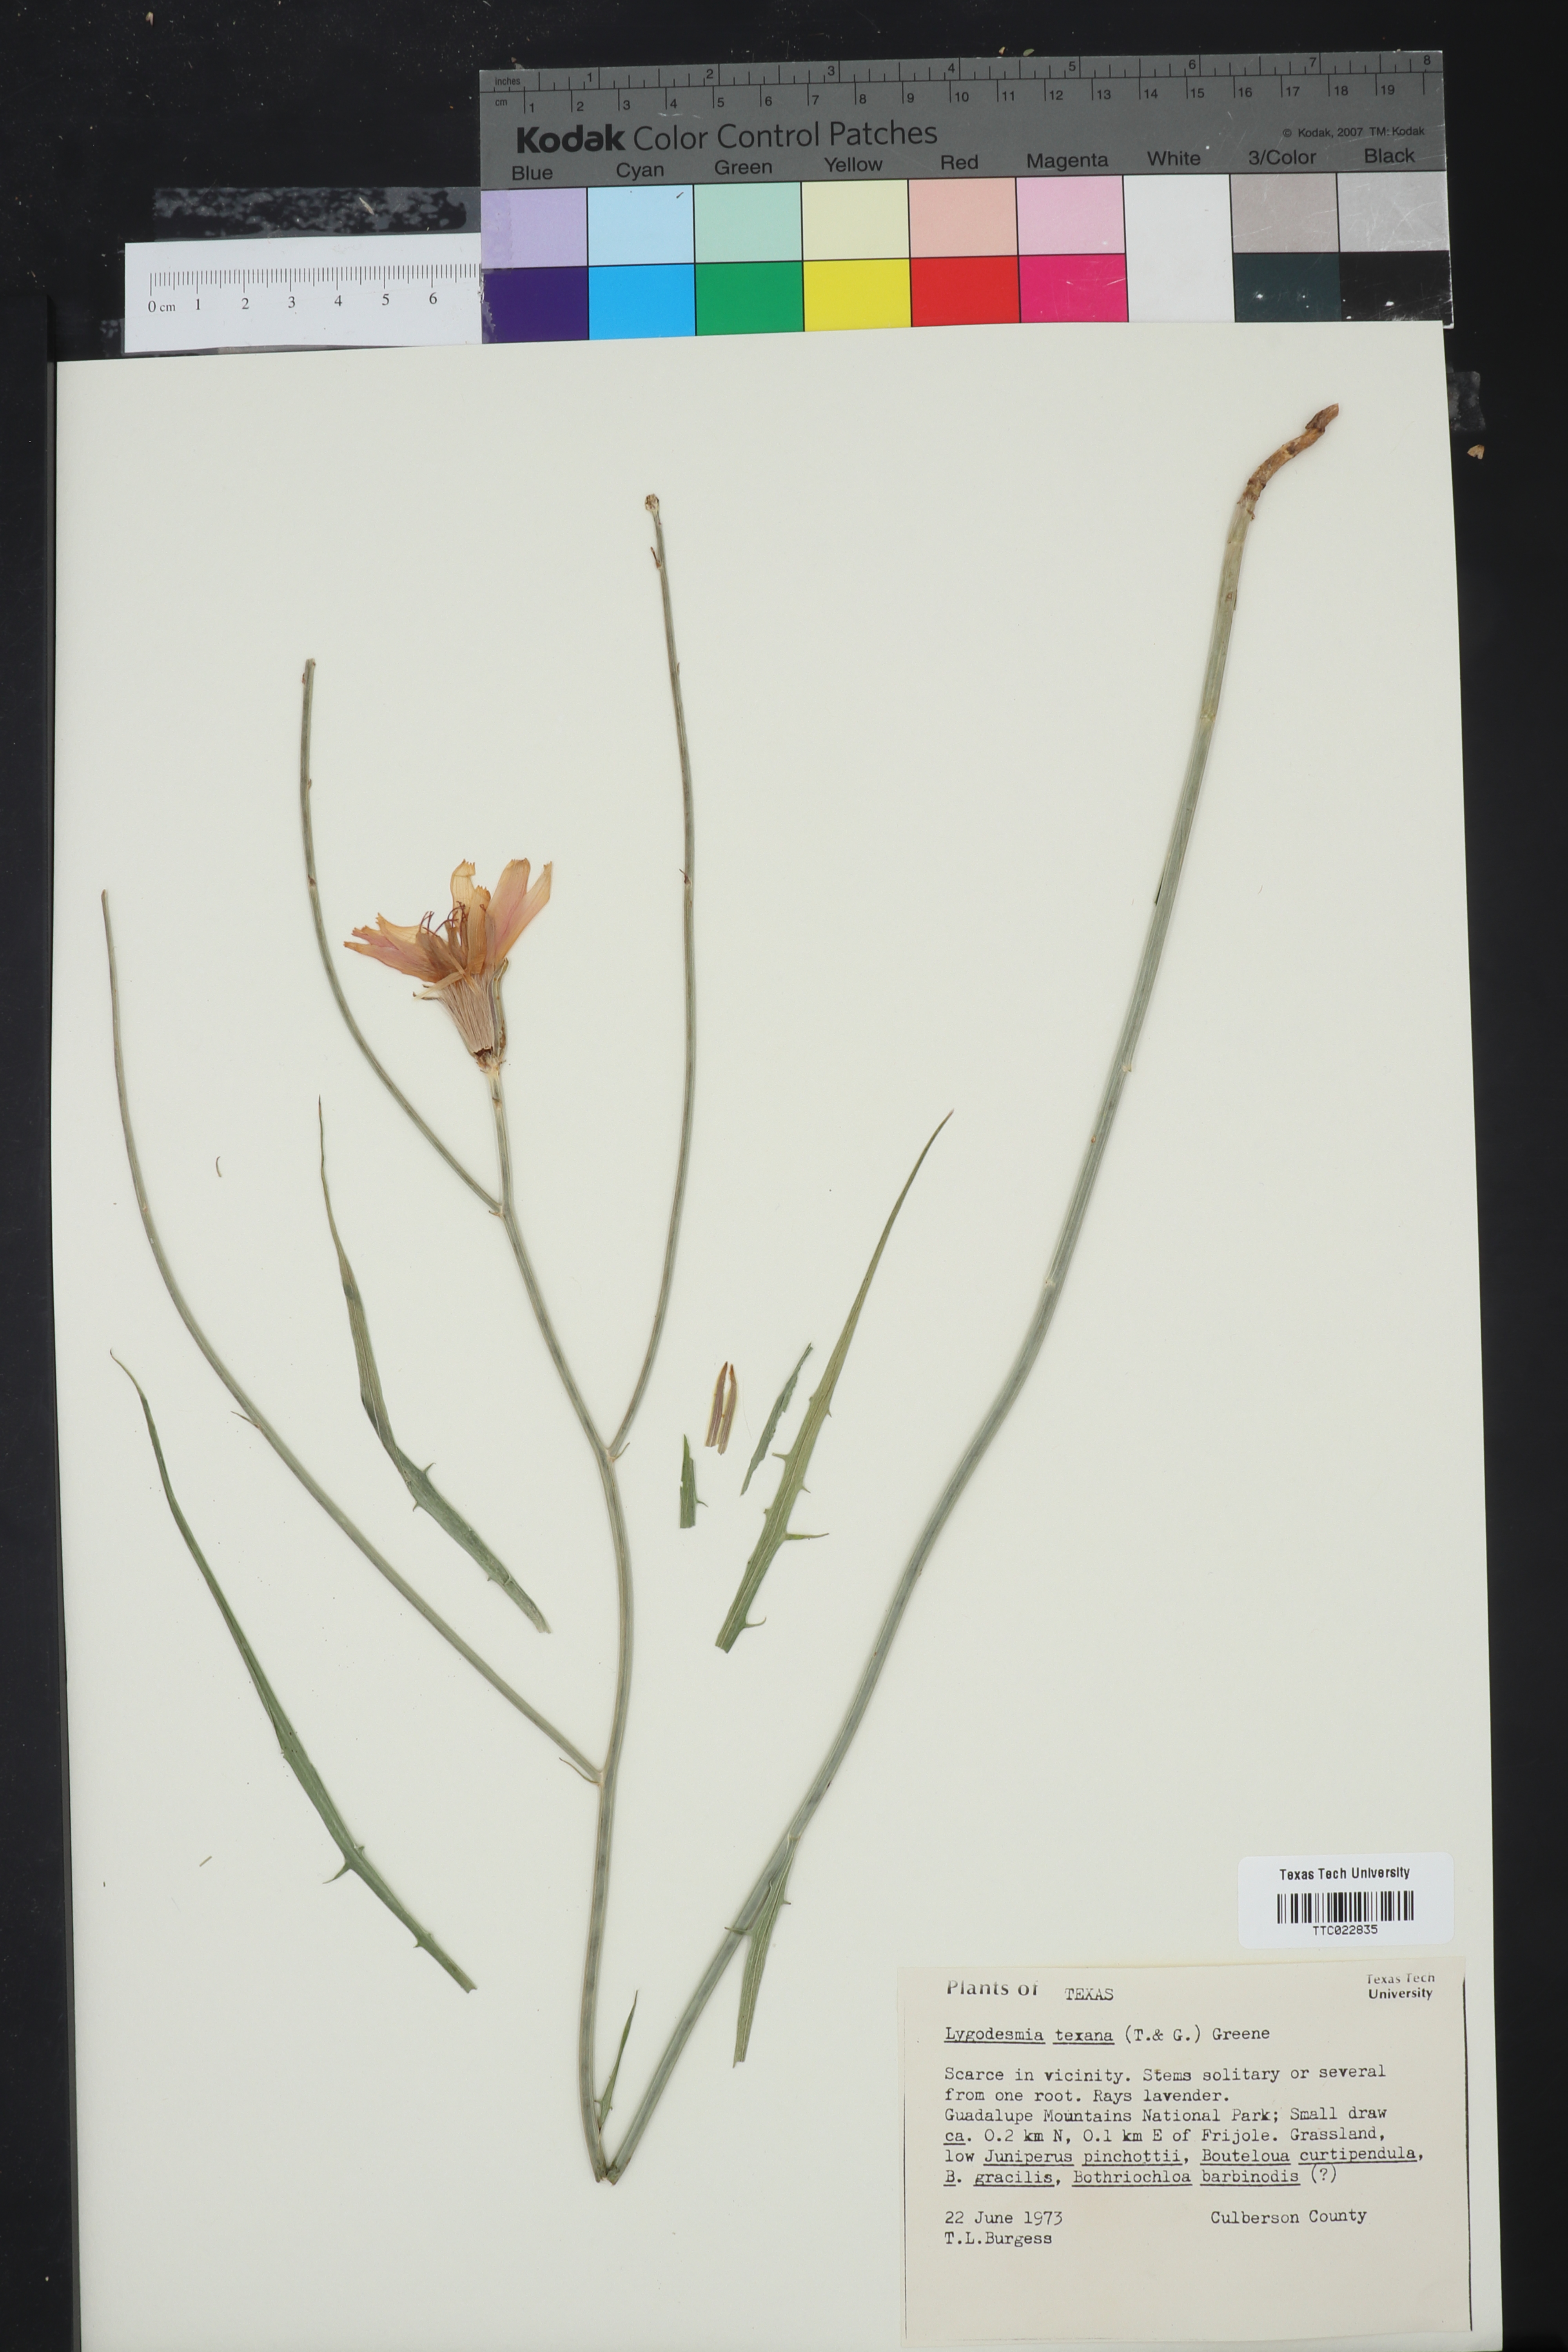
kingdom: Plantae
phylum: Tracheophyta
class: Magnoliopsida
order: Asterales
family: Asteraceae
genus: Lygodesmia
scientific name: Lygodesmia texana
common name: Texas skeleton-plant
